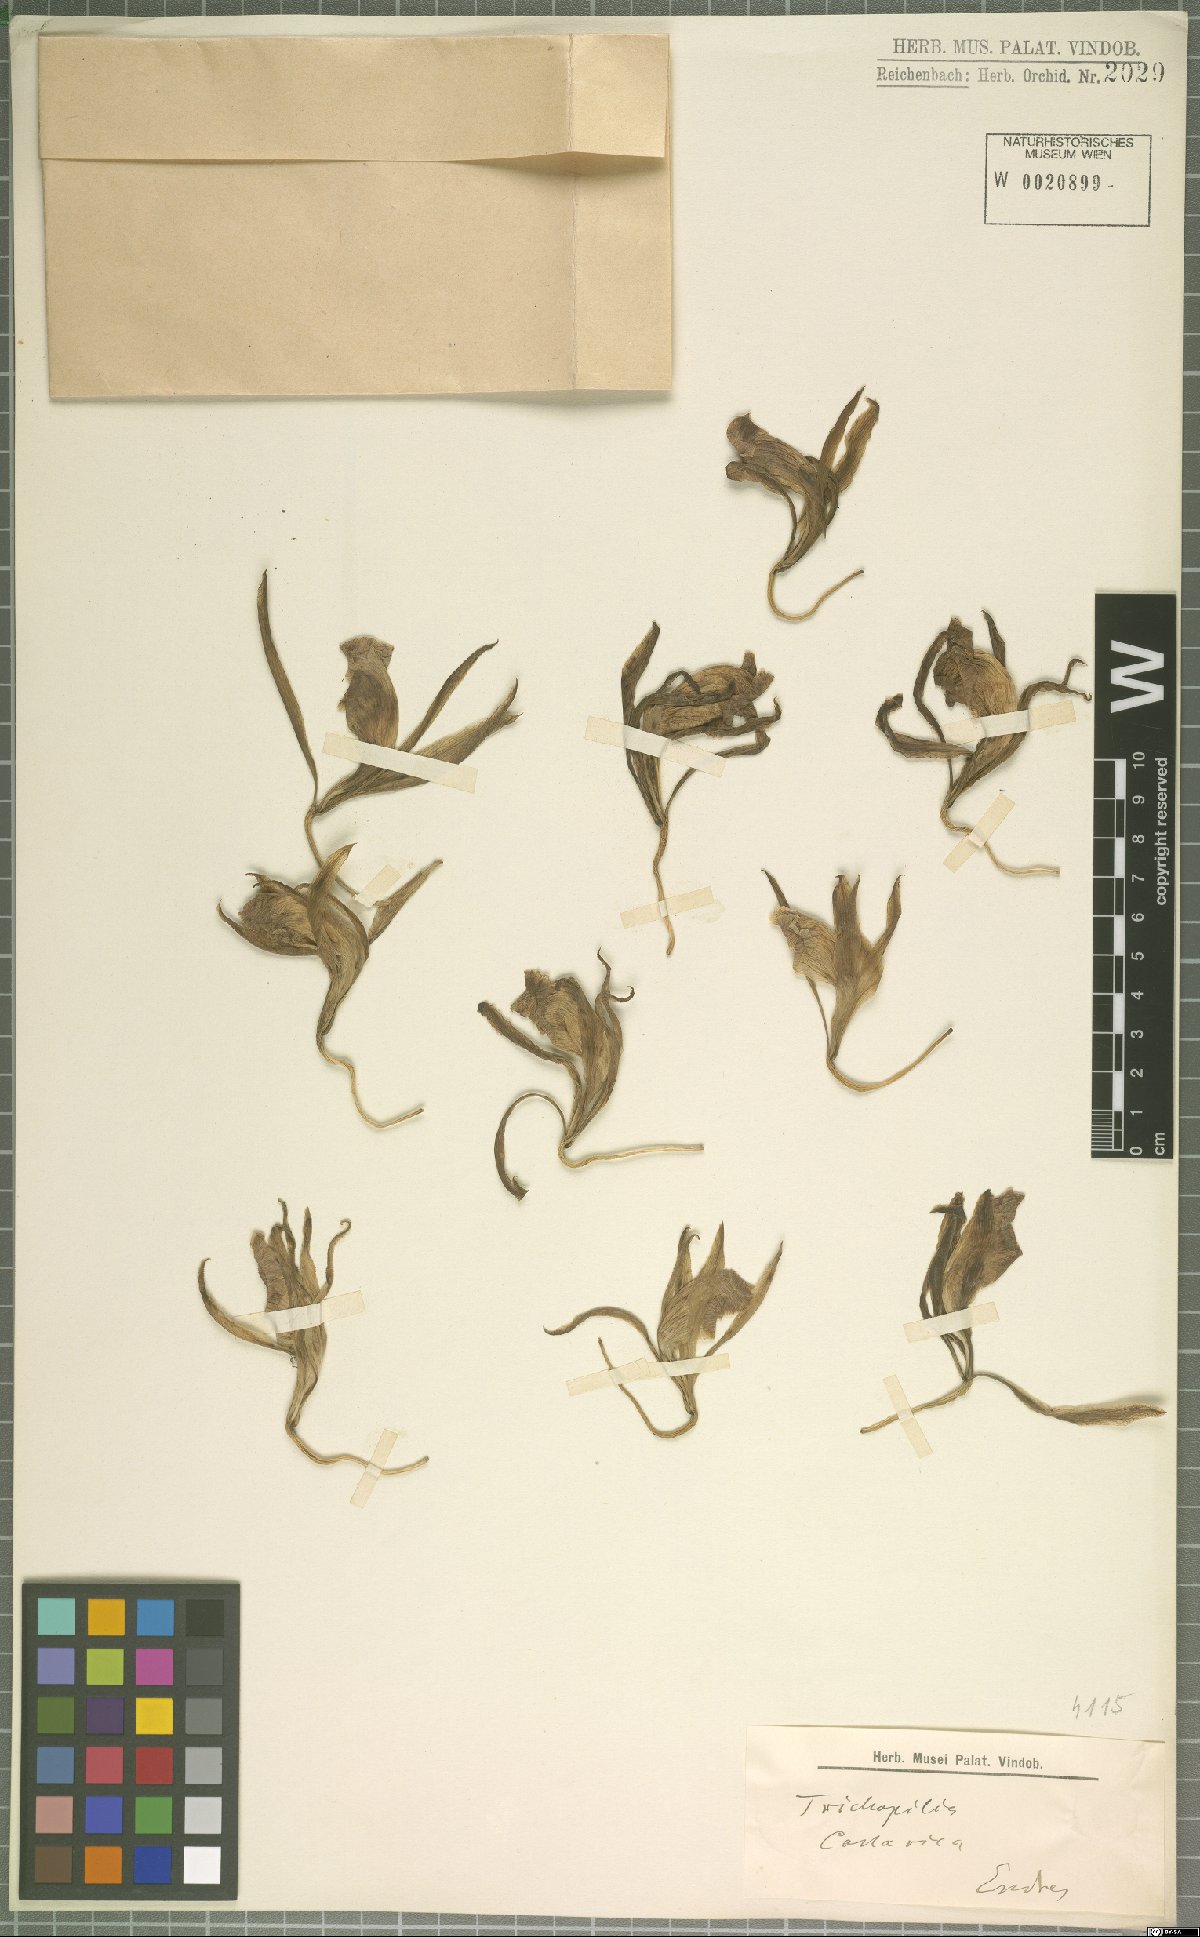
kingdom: Plantae
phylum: Tracheophyta
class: Liliopsida
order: Asparagales
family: Orchidaceae
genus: Trichopilia
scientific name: Trichopilia
